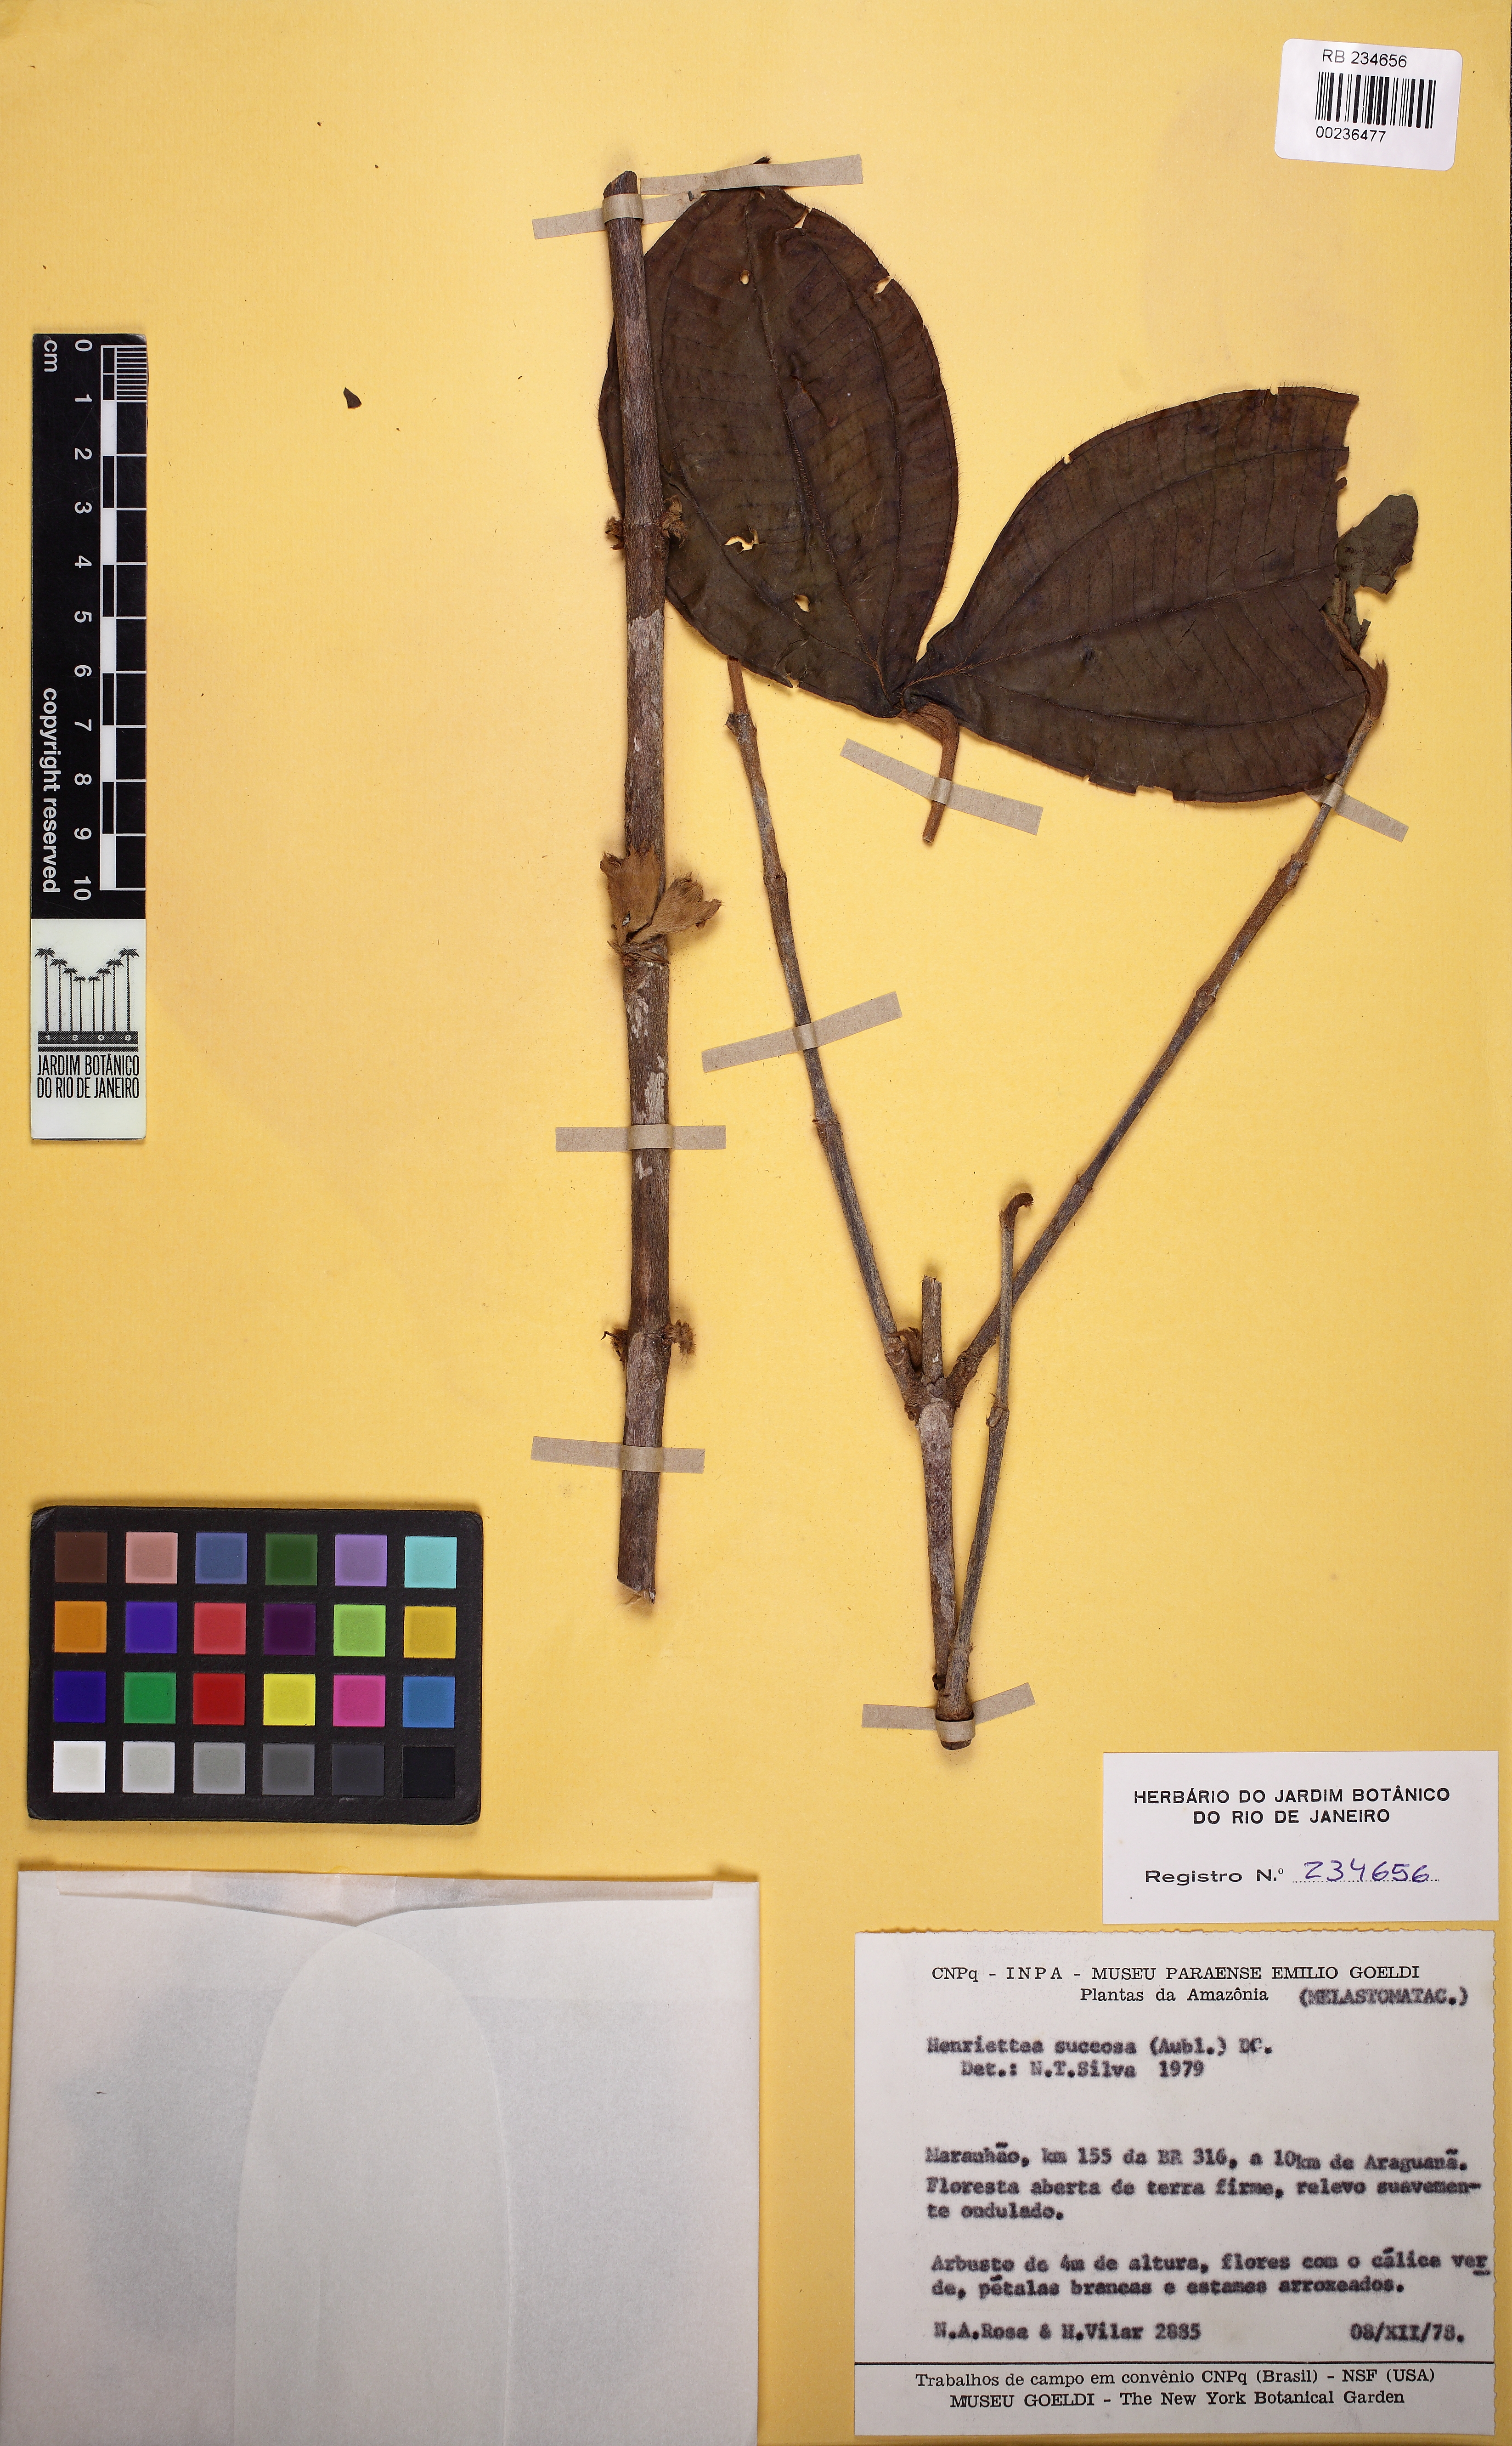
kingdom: Plantae
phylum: Tracheophyta
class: Magnoliopsida
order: Myrtales
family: Melastomataceae
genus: Henriettea
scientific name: Henriettea succosa
